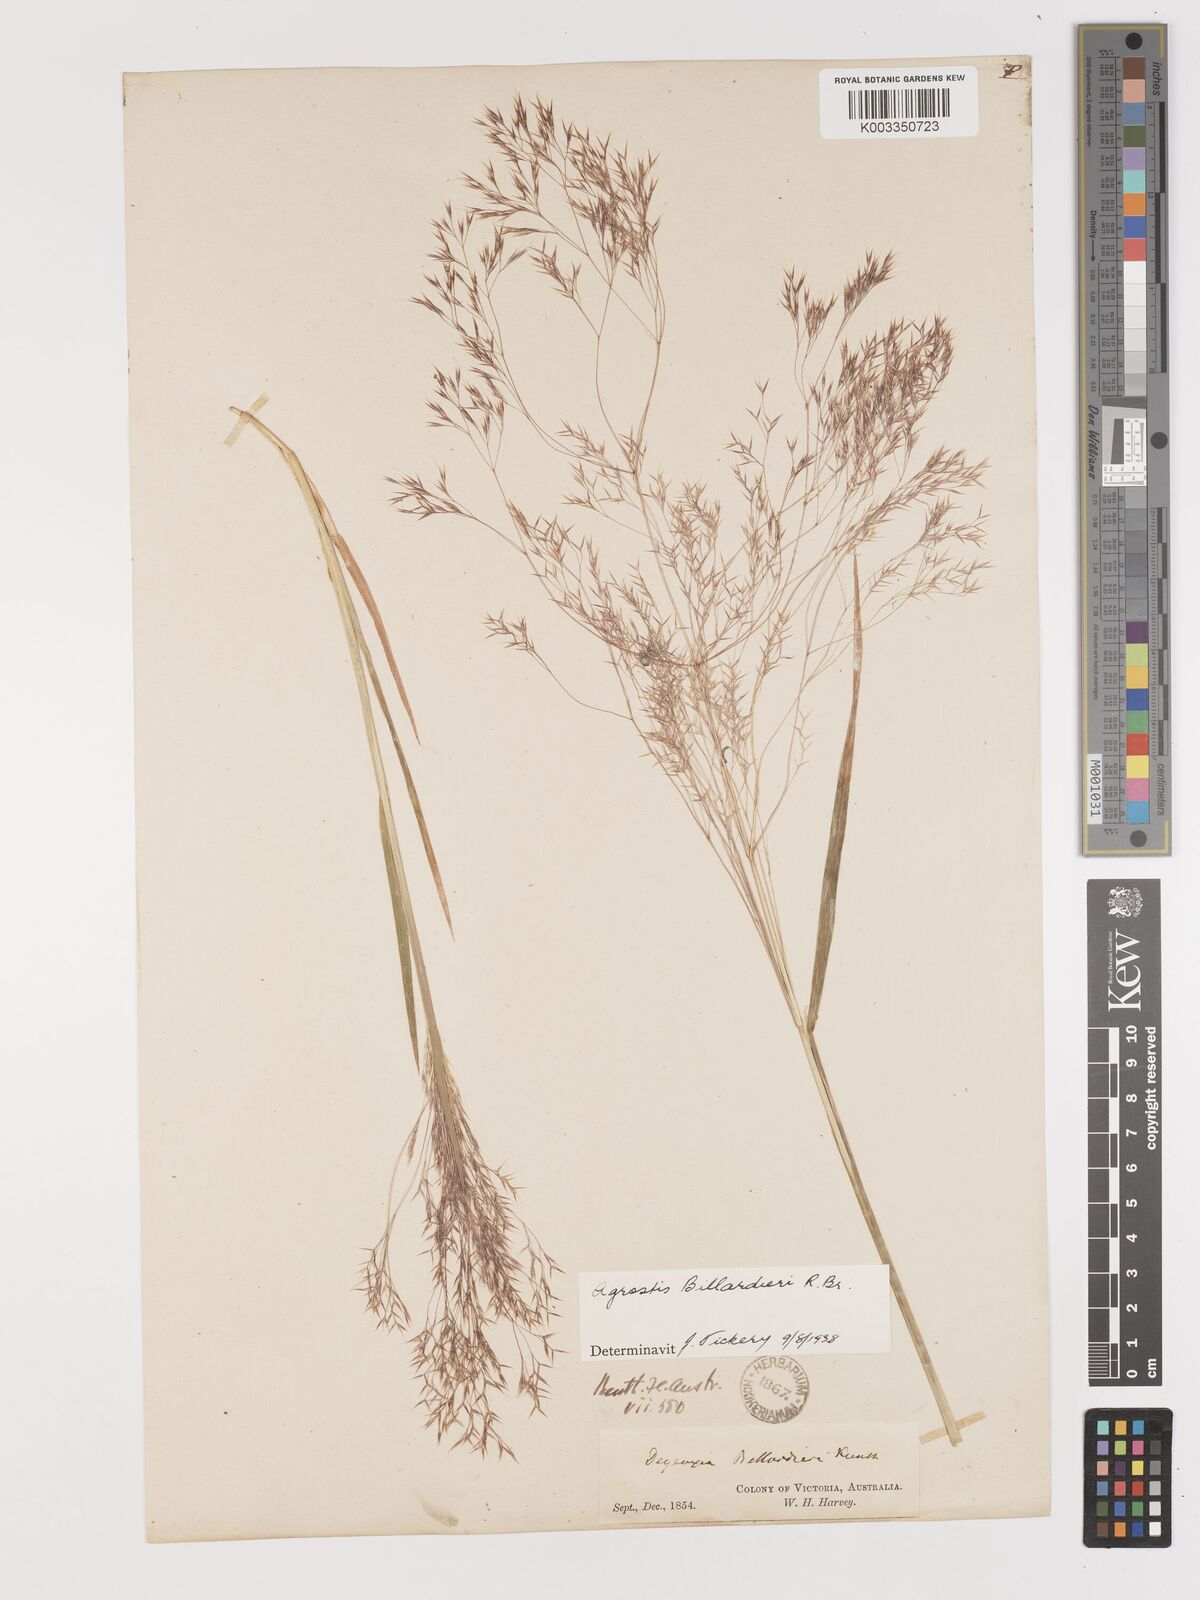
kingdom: Plantae
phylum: Tracheophyta
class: Liliopsida
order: Poales
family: Poaceae
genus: Lachnagrostis
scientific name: Lachnagrostis billardierei
